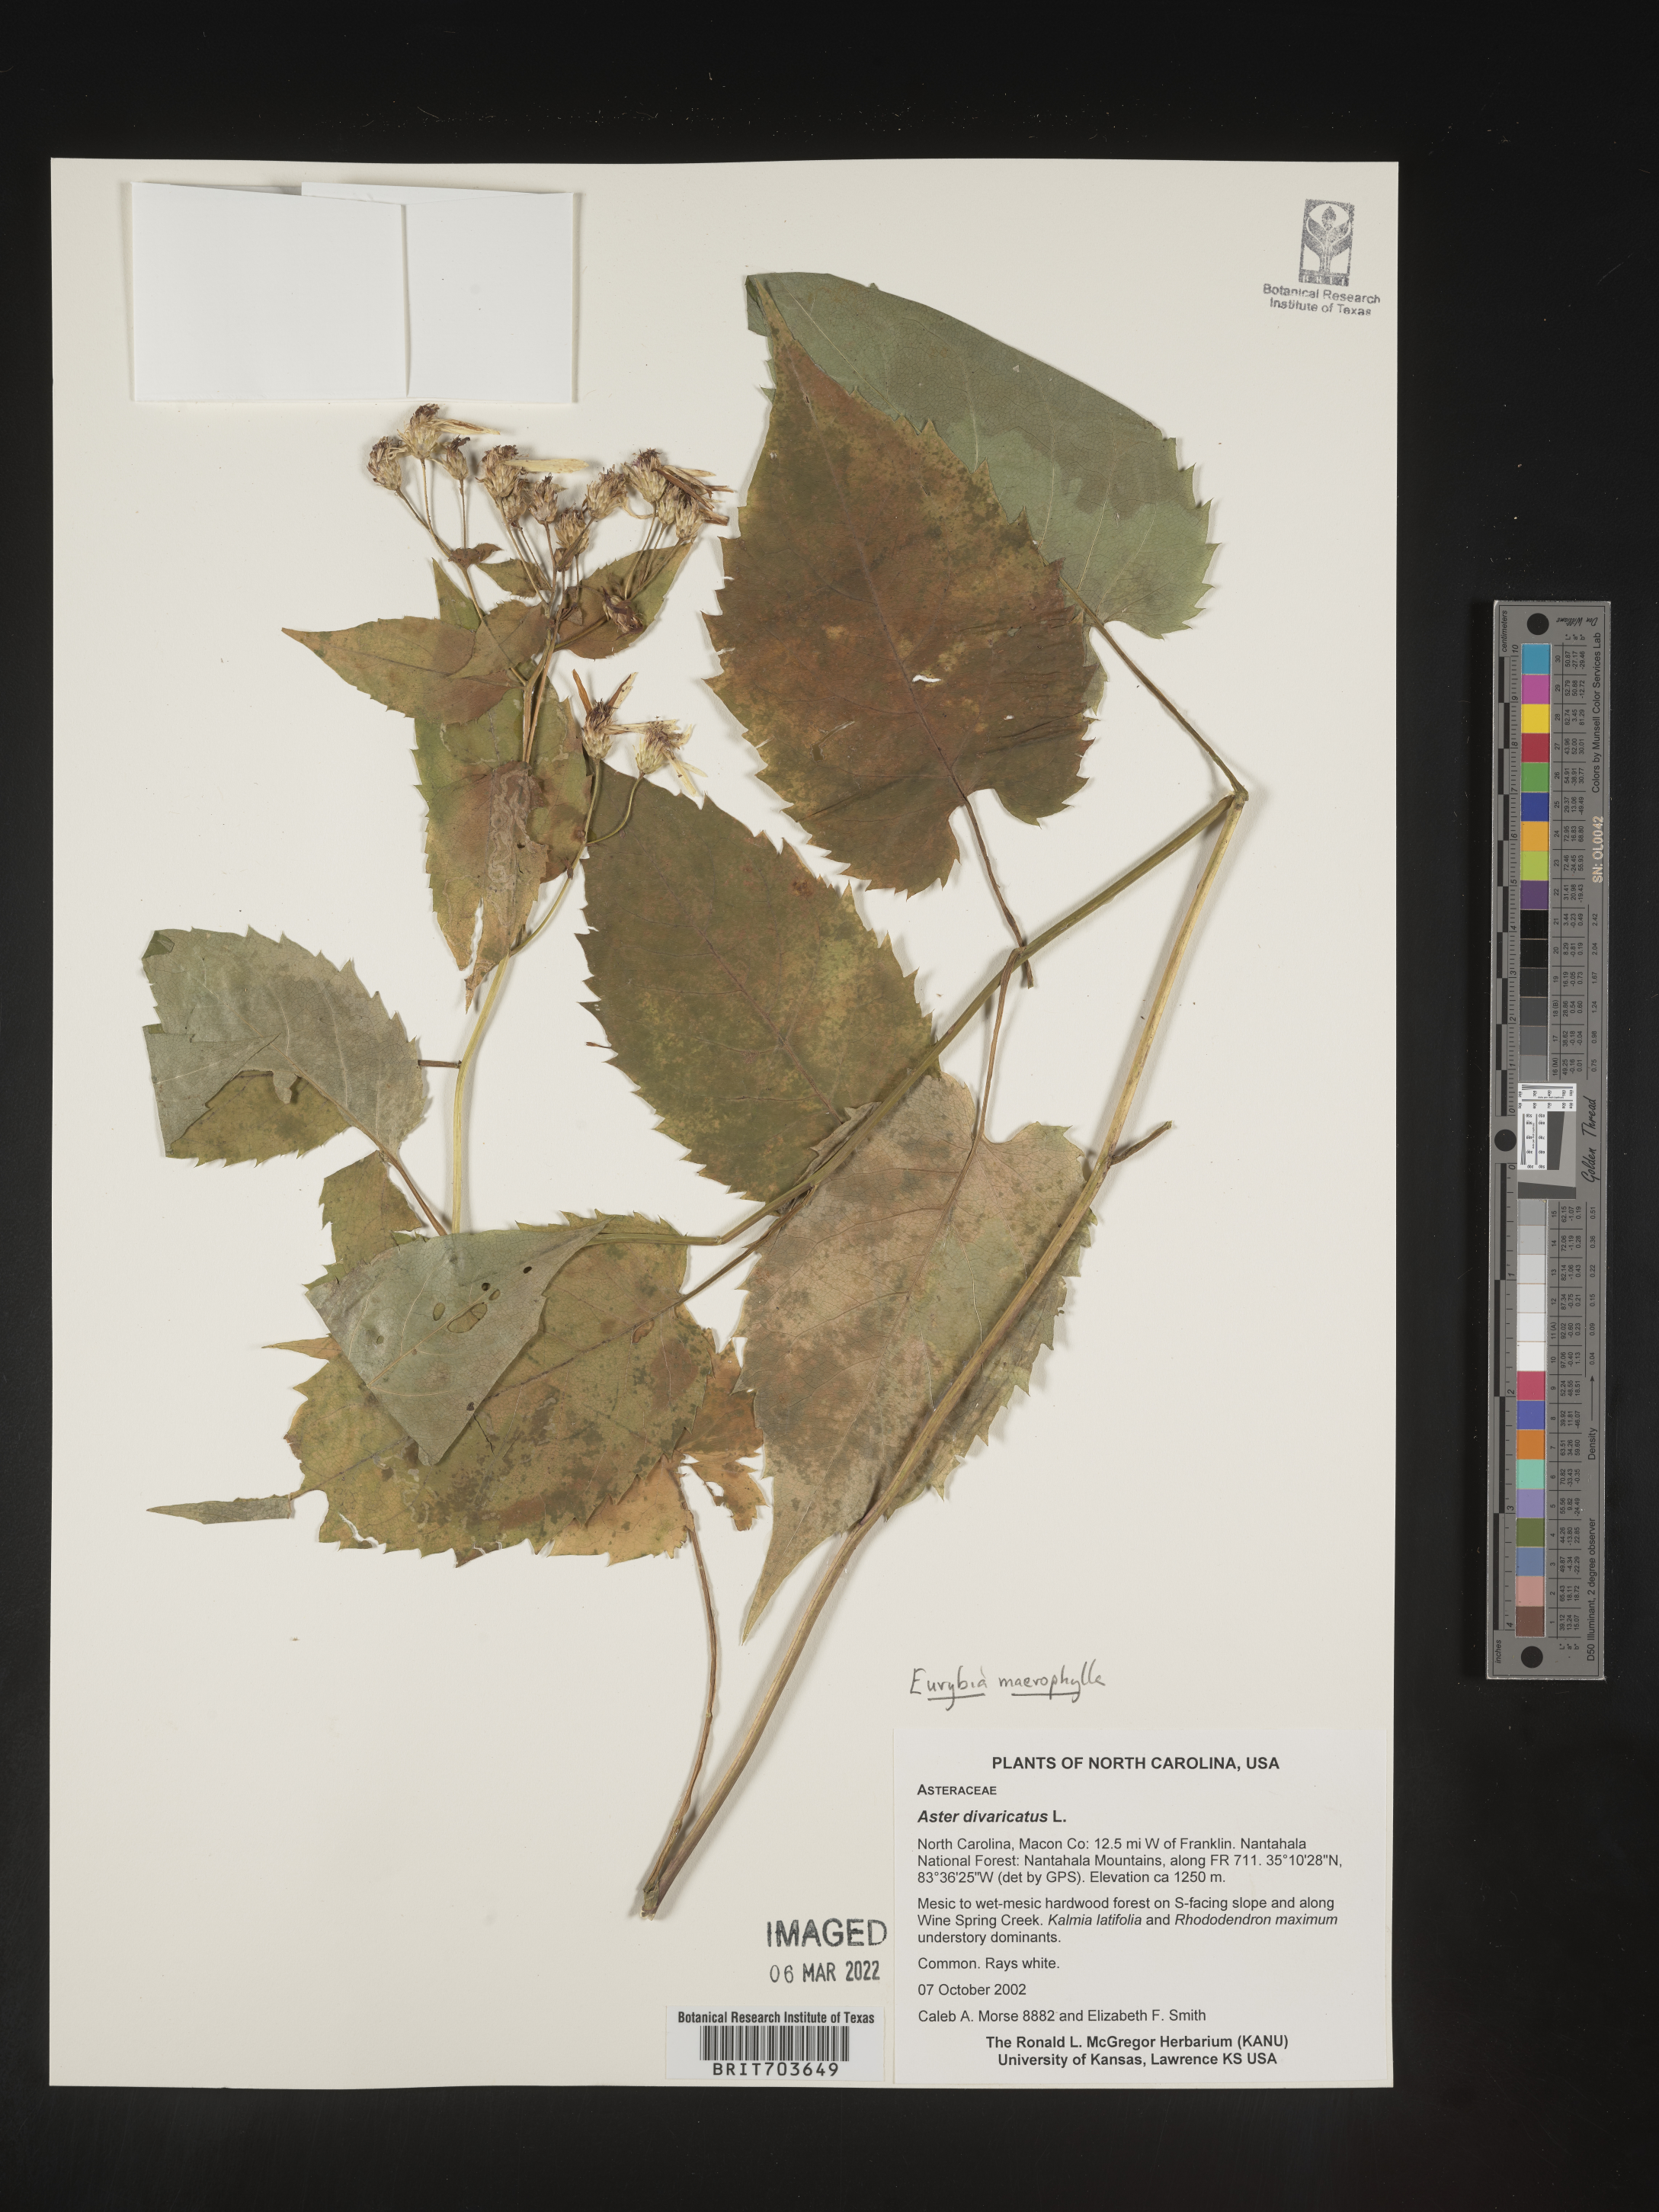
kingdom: Plantae
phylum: Tracheophyta
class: Magnoliopsida
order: Asterales
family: Asteraceae
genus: Eurybia
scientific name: Eurybia macrophylla
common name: Big-leaved aster
